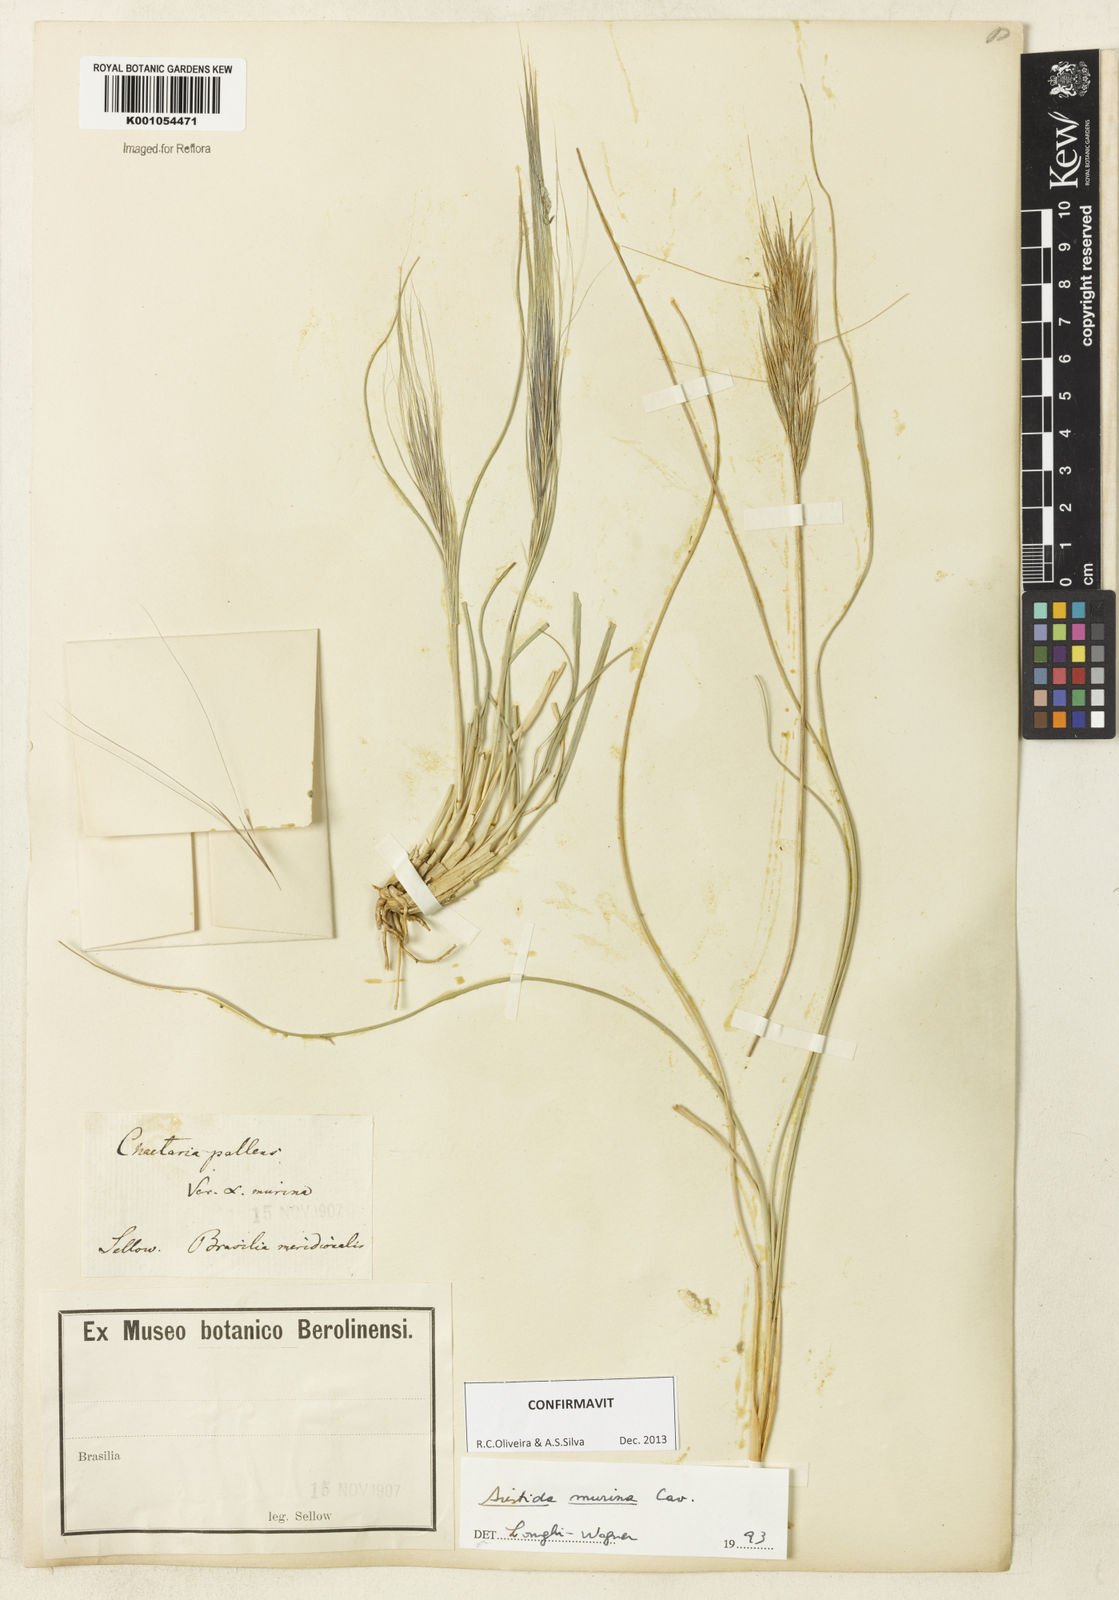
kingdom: Plantae
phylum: Tracheophyta
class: Liliopsida
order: Poales
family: Poaceae
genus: Aristida
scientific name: Aristida murina
